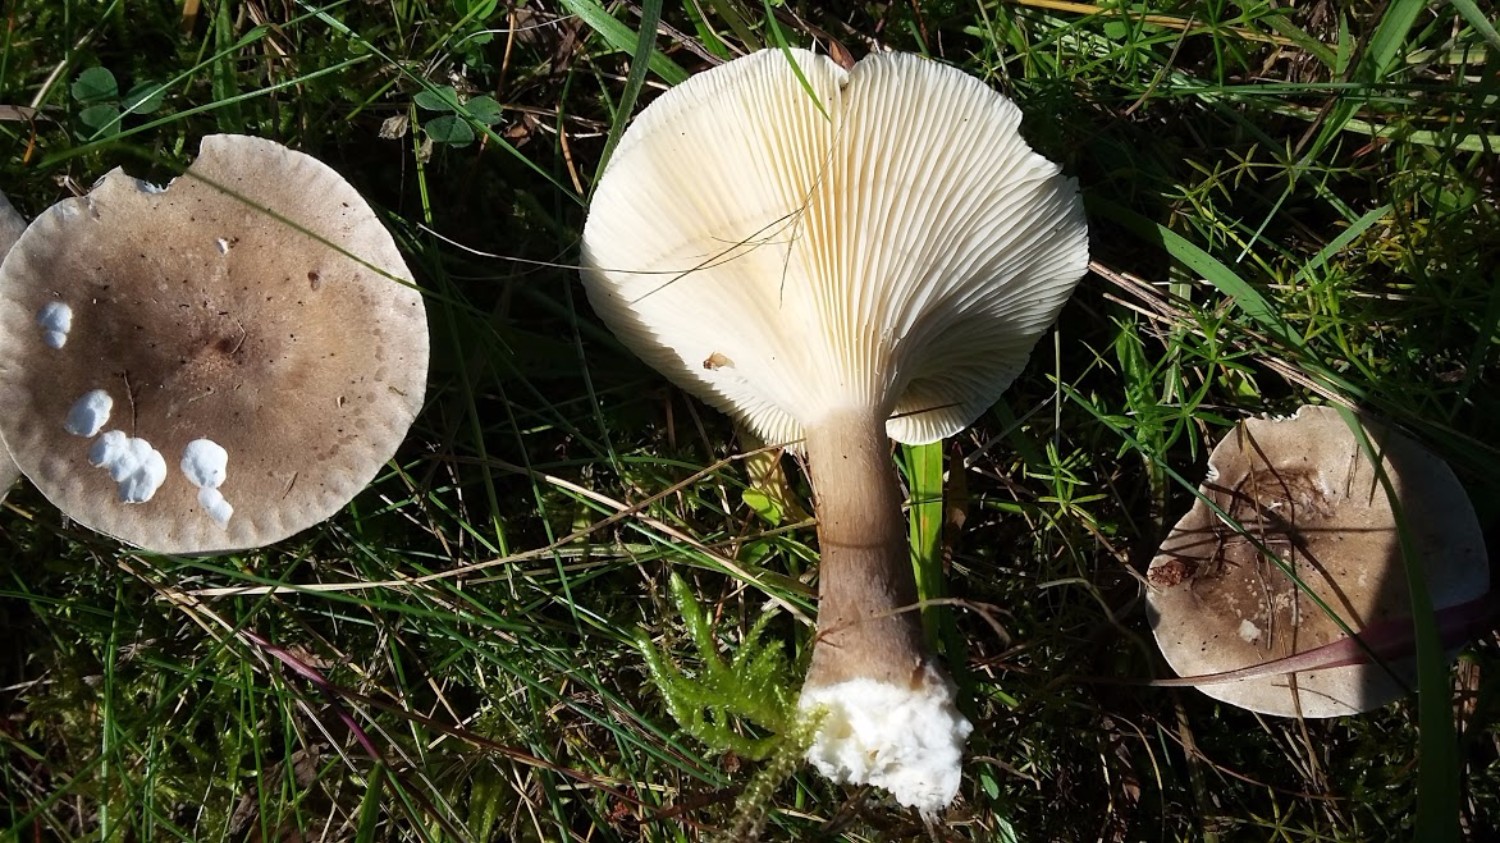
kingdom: Fungi
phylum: Basidiomycota
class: Agaricomycetes
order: Agaricales
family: Hygrophoraceae
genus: Ampulloclitocybe
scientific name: Ampulloclitocybe clavipes
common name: køllefod
